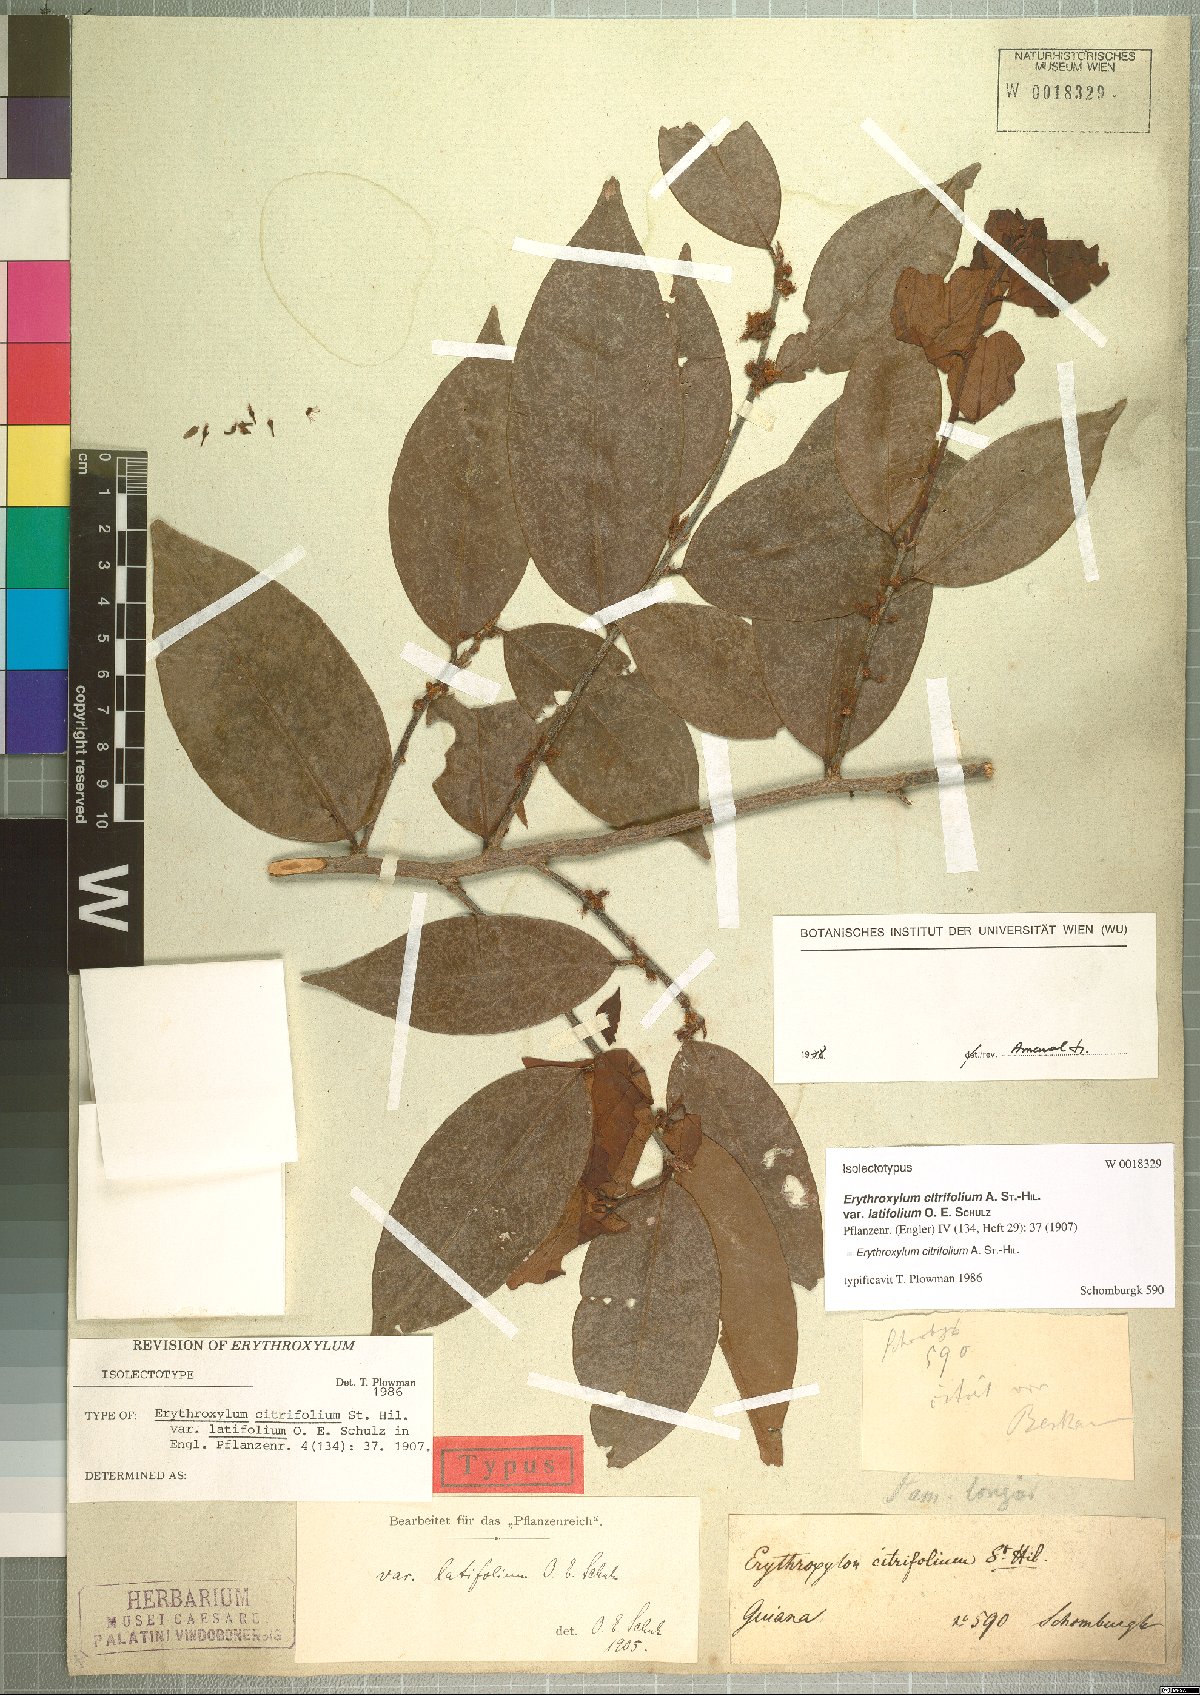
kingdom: Plantae
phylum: Tracheophyta
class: Magnoliopsida
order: Malpighiales
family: Erythroxylaceae
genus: Erythroxylum
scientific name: Erythroxylum citrifolium
